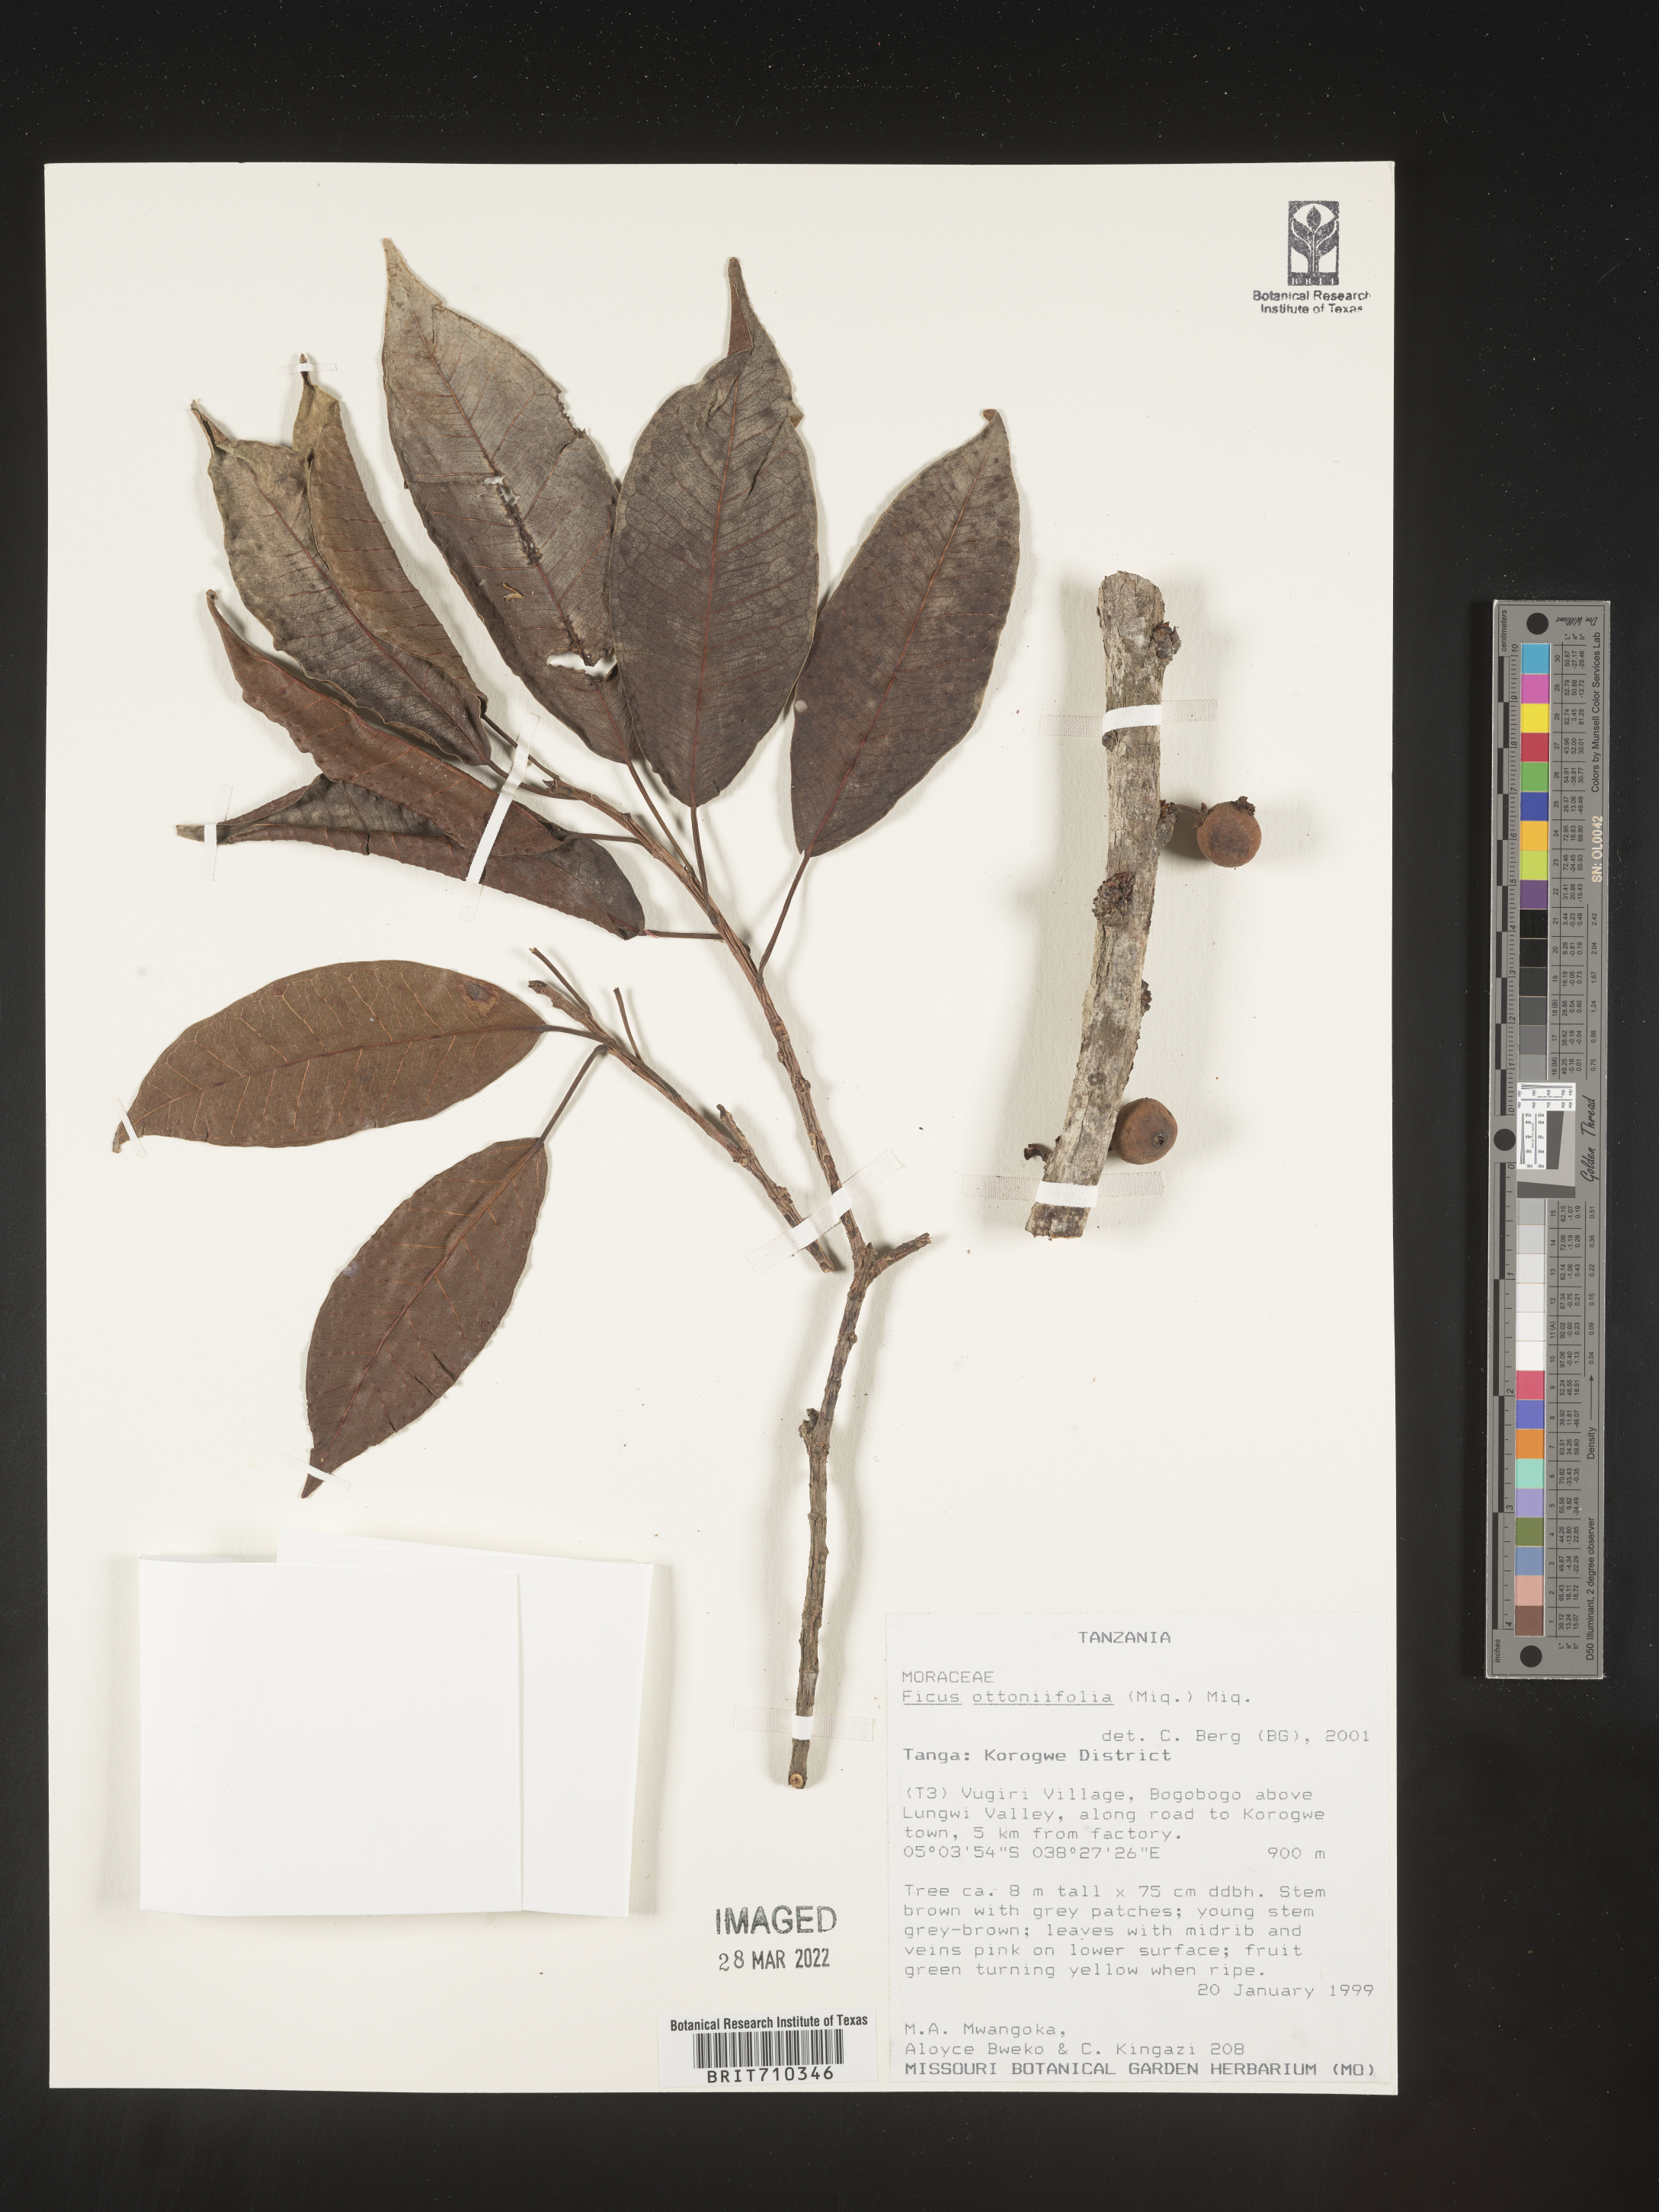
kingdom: Plantae
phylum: Tracheophyta
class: Magnoliopsida
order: Rosales
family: Moraceae
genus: Ficus
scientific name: Ficus
